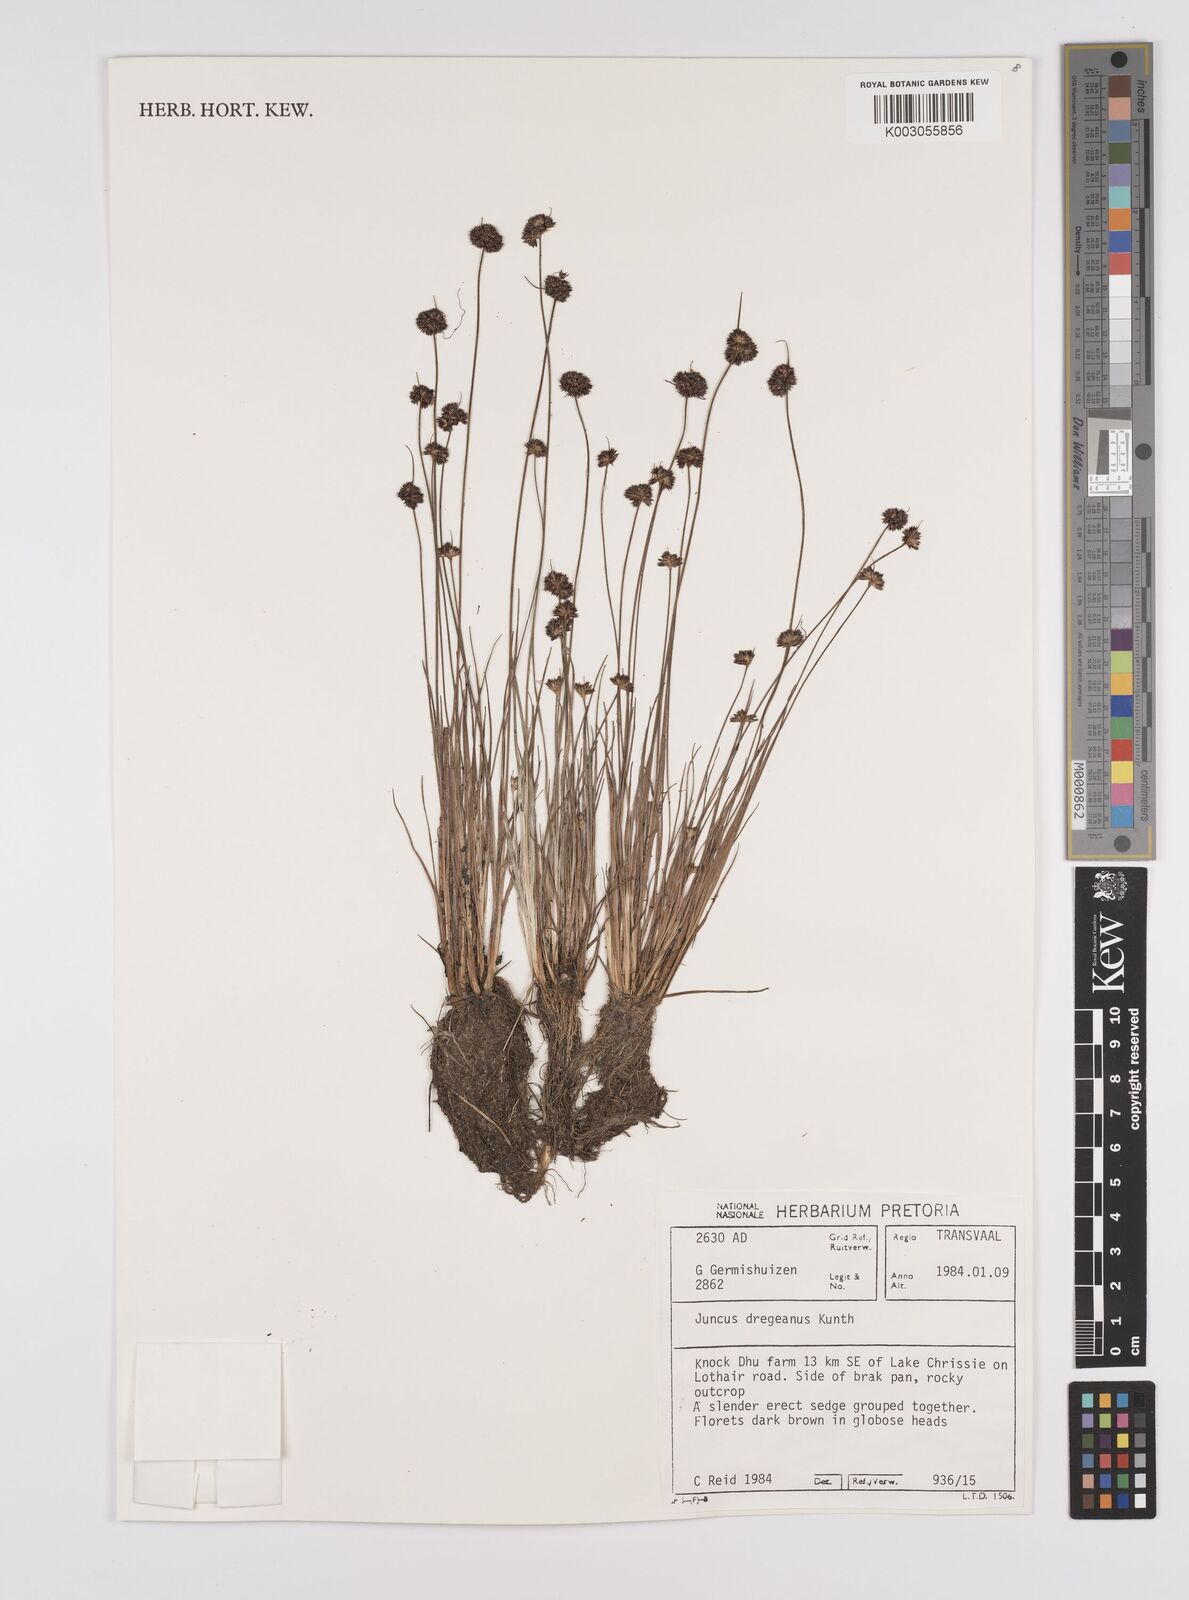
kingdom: Plantae
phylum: Tracheophyta
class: Liliopsida
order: Poales
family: Juncaceae
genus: Juncus
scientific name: Juncus dregeanus
